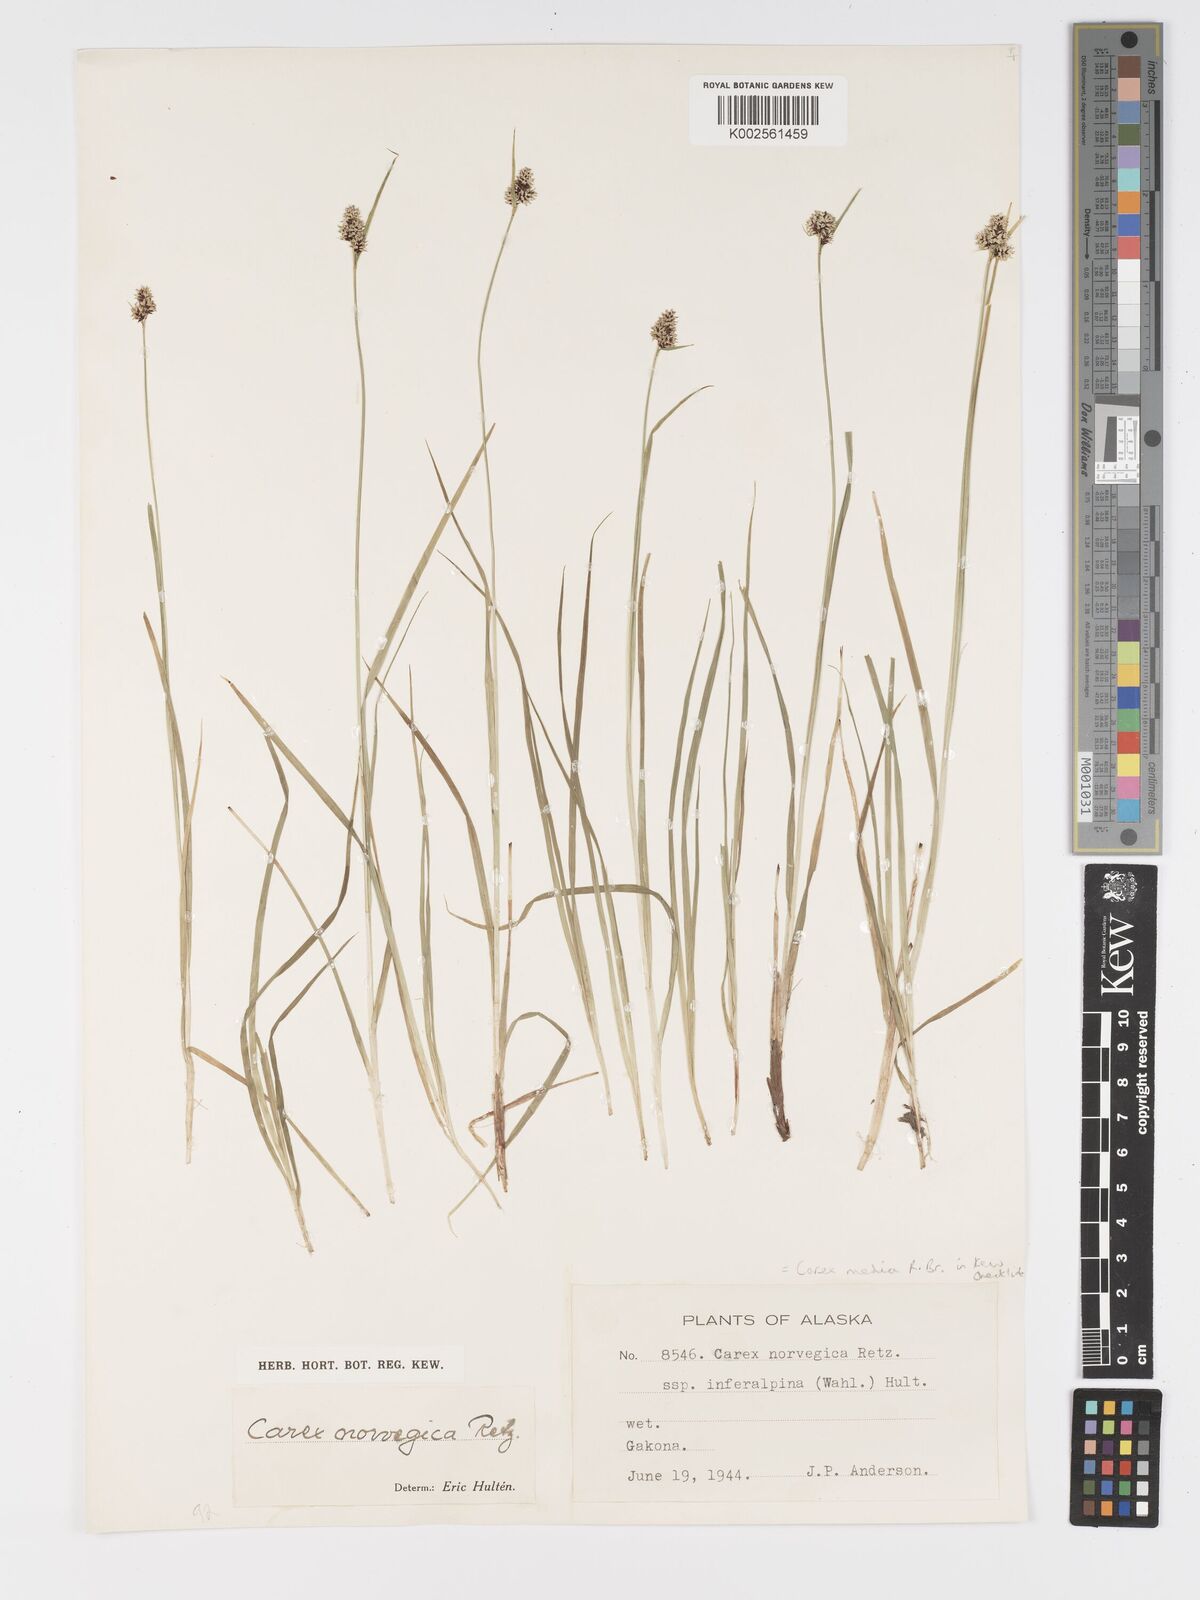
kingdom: Plantae
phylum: Tracheophyta
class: Liliopsida
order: Poales
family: Cyperaceae
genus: Carex
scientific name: Carex media
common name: Alpine sedge
